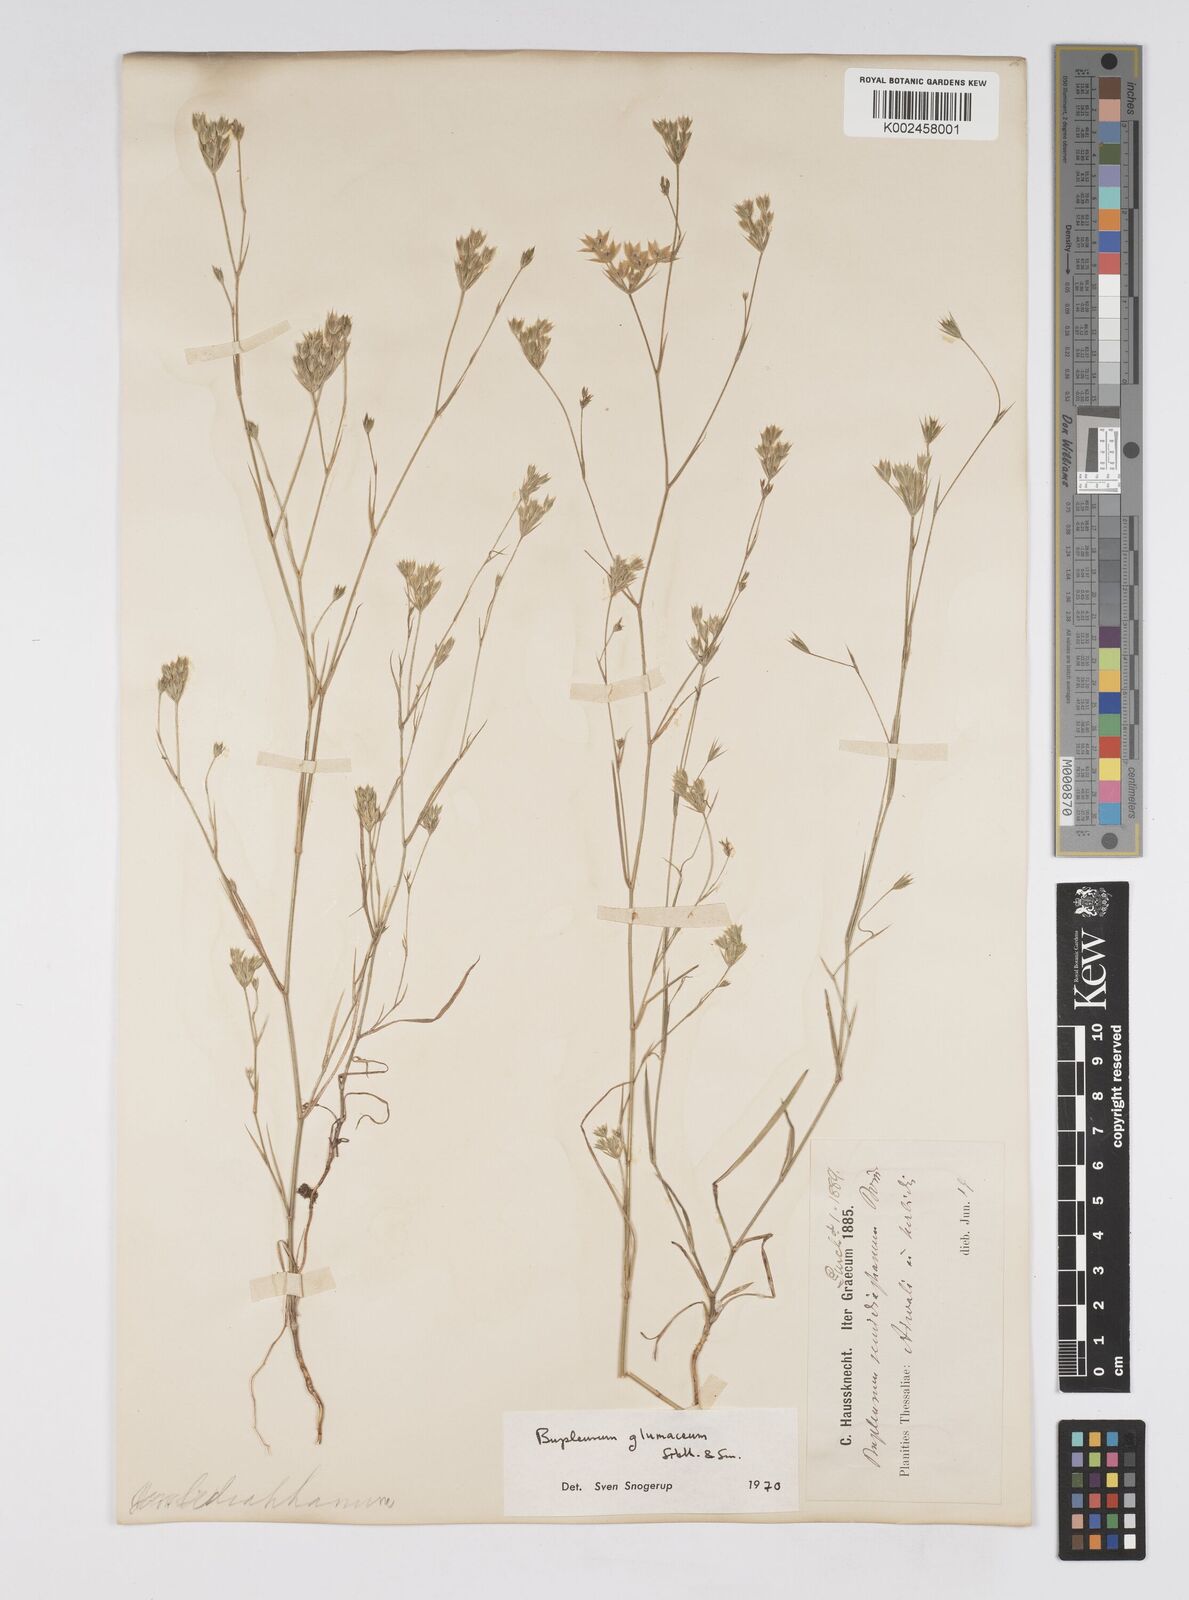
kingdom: Plantae
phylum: Tracheophyta
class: Magnoliopsida
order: Apiales
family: Apiaceae
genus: Bupleurum
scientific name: Bupleurum glumaceum
